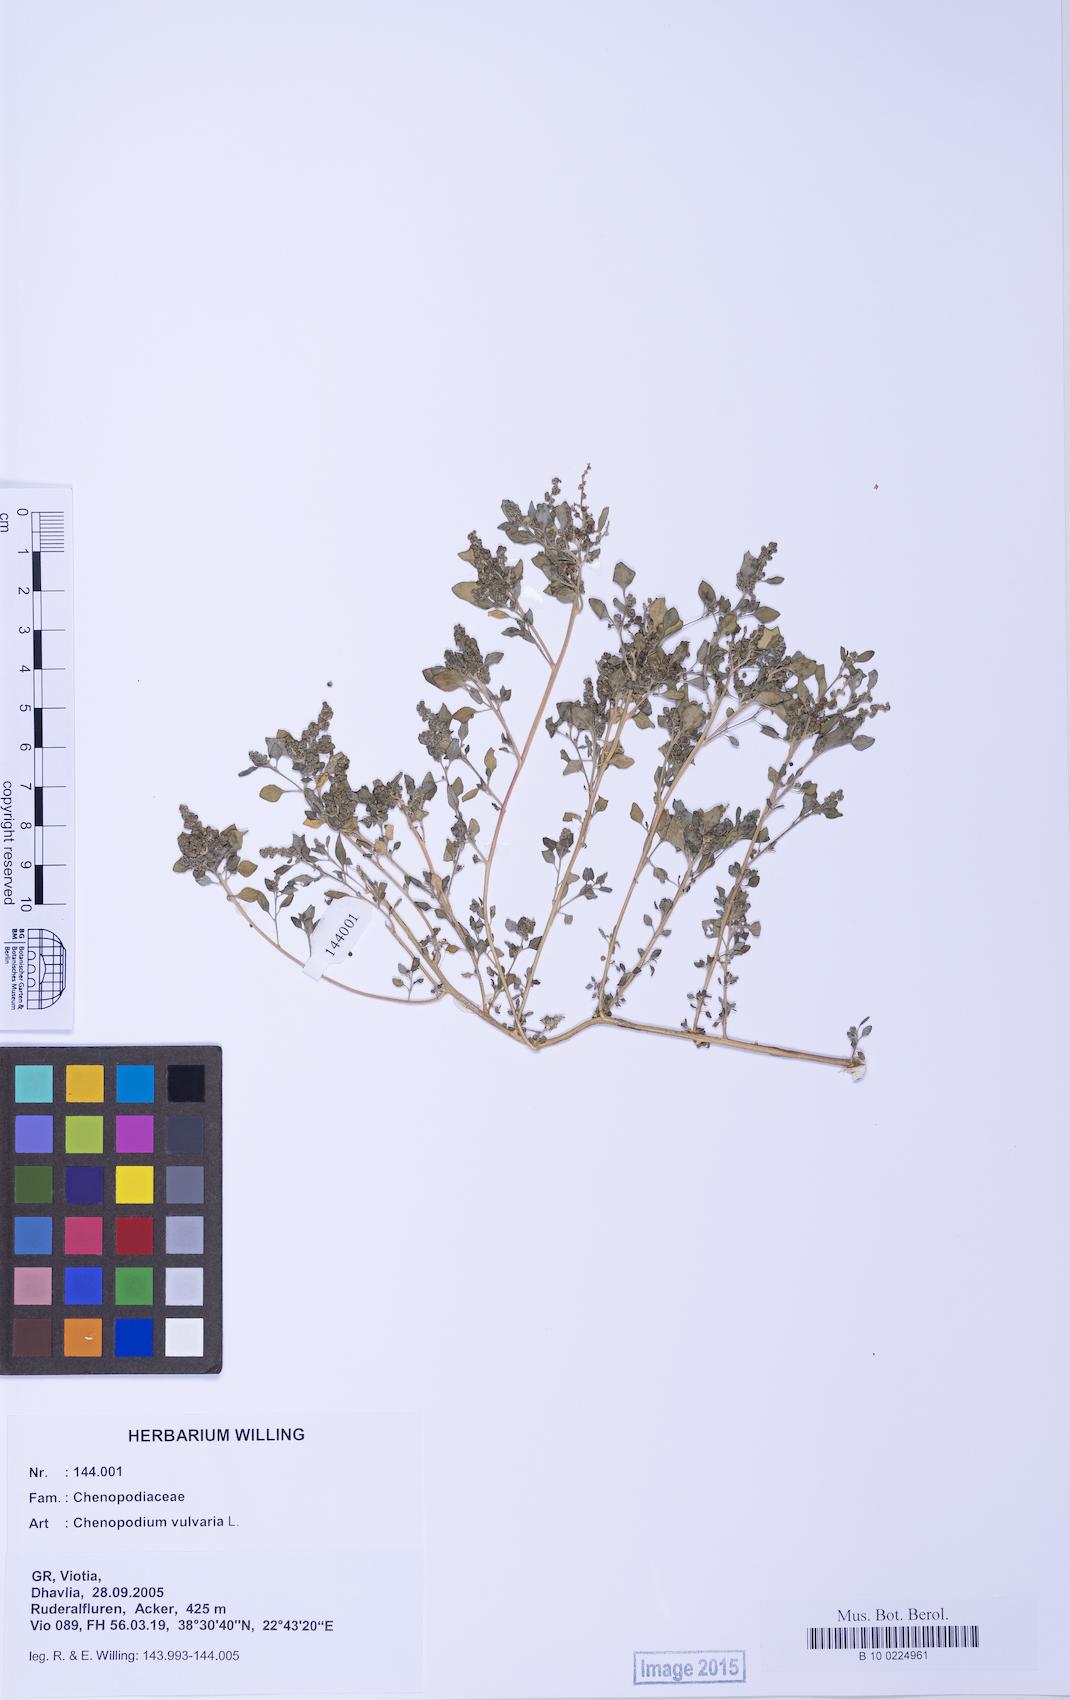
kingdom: Plantae
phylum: Tracheophyta
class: Magnoliopsida
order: Caryophyllales
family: Amaranthaceae
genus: Chenopodium
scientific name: Chenopodium vulvaria
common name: Stinking goosefoot
